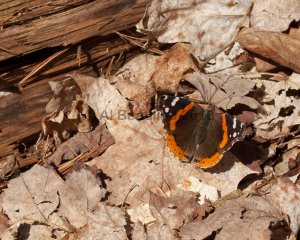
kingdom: Animalia
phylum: Arthropoda
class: Insecta
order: Lepidoptera
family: Nymphalidae
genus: Vanessa
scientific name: Vanessa atalanta
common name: Red Admiral
